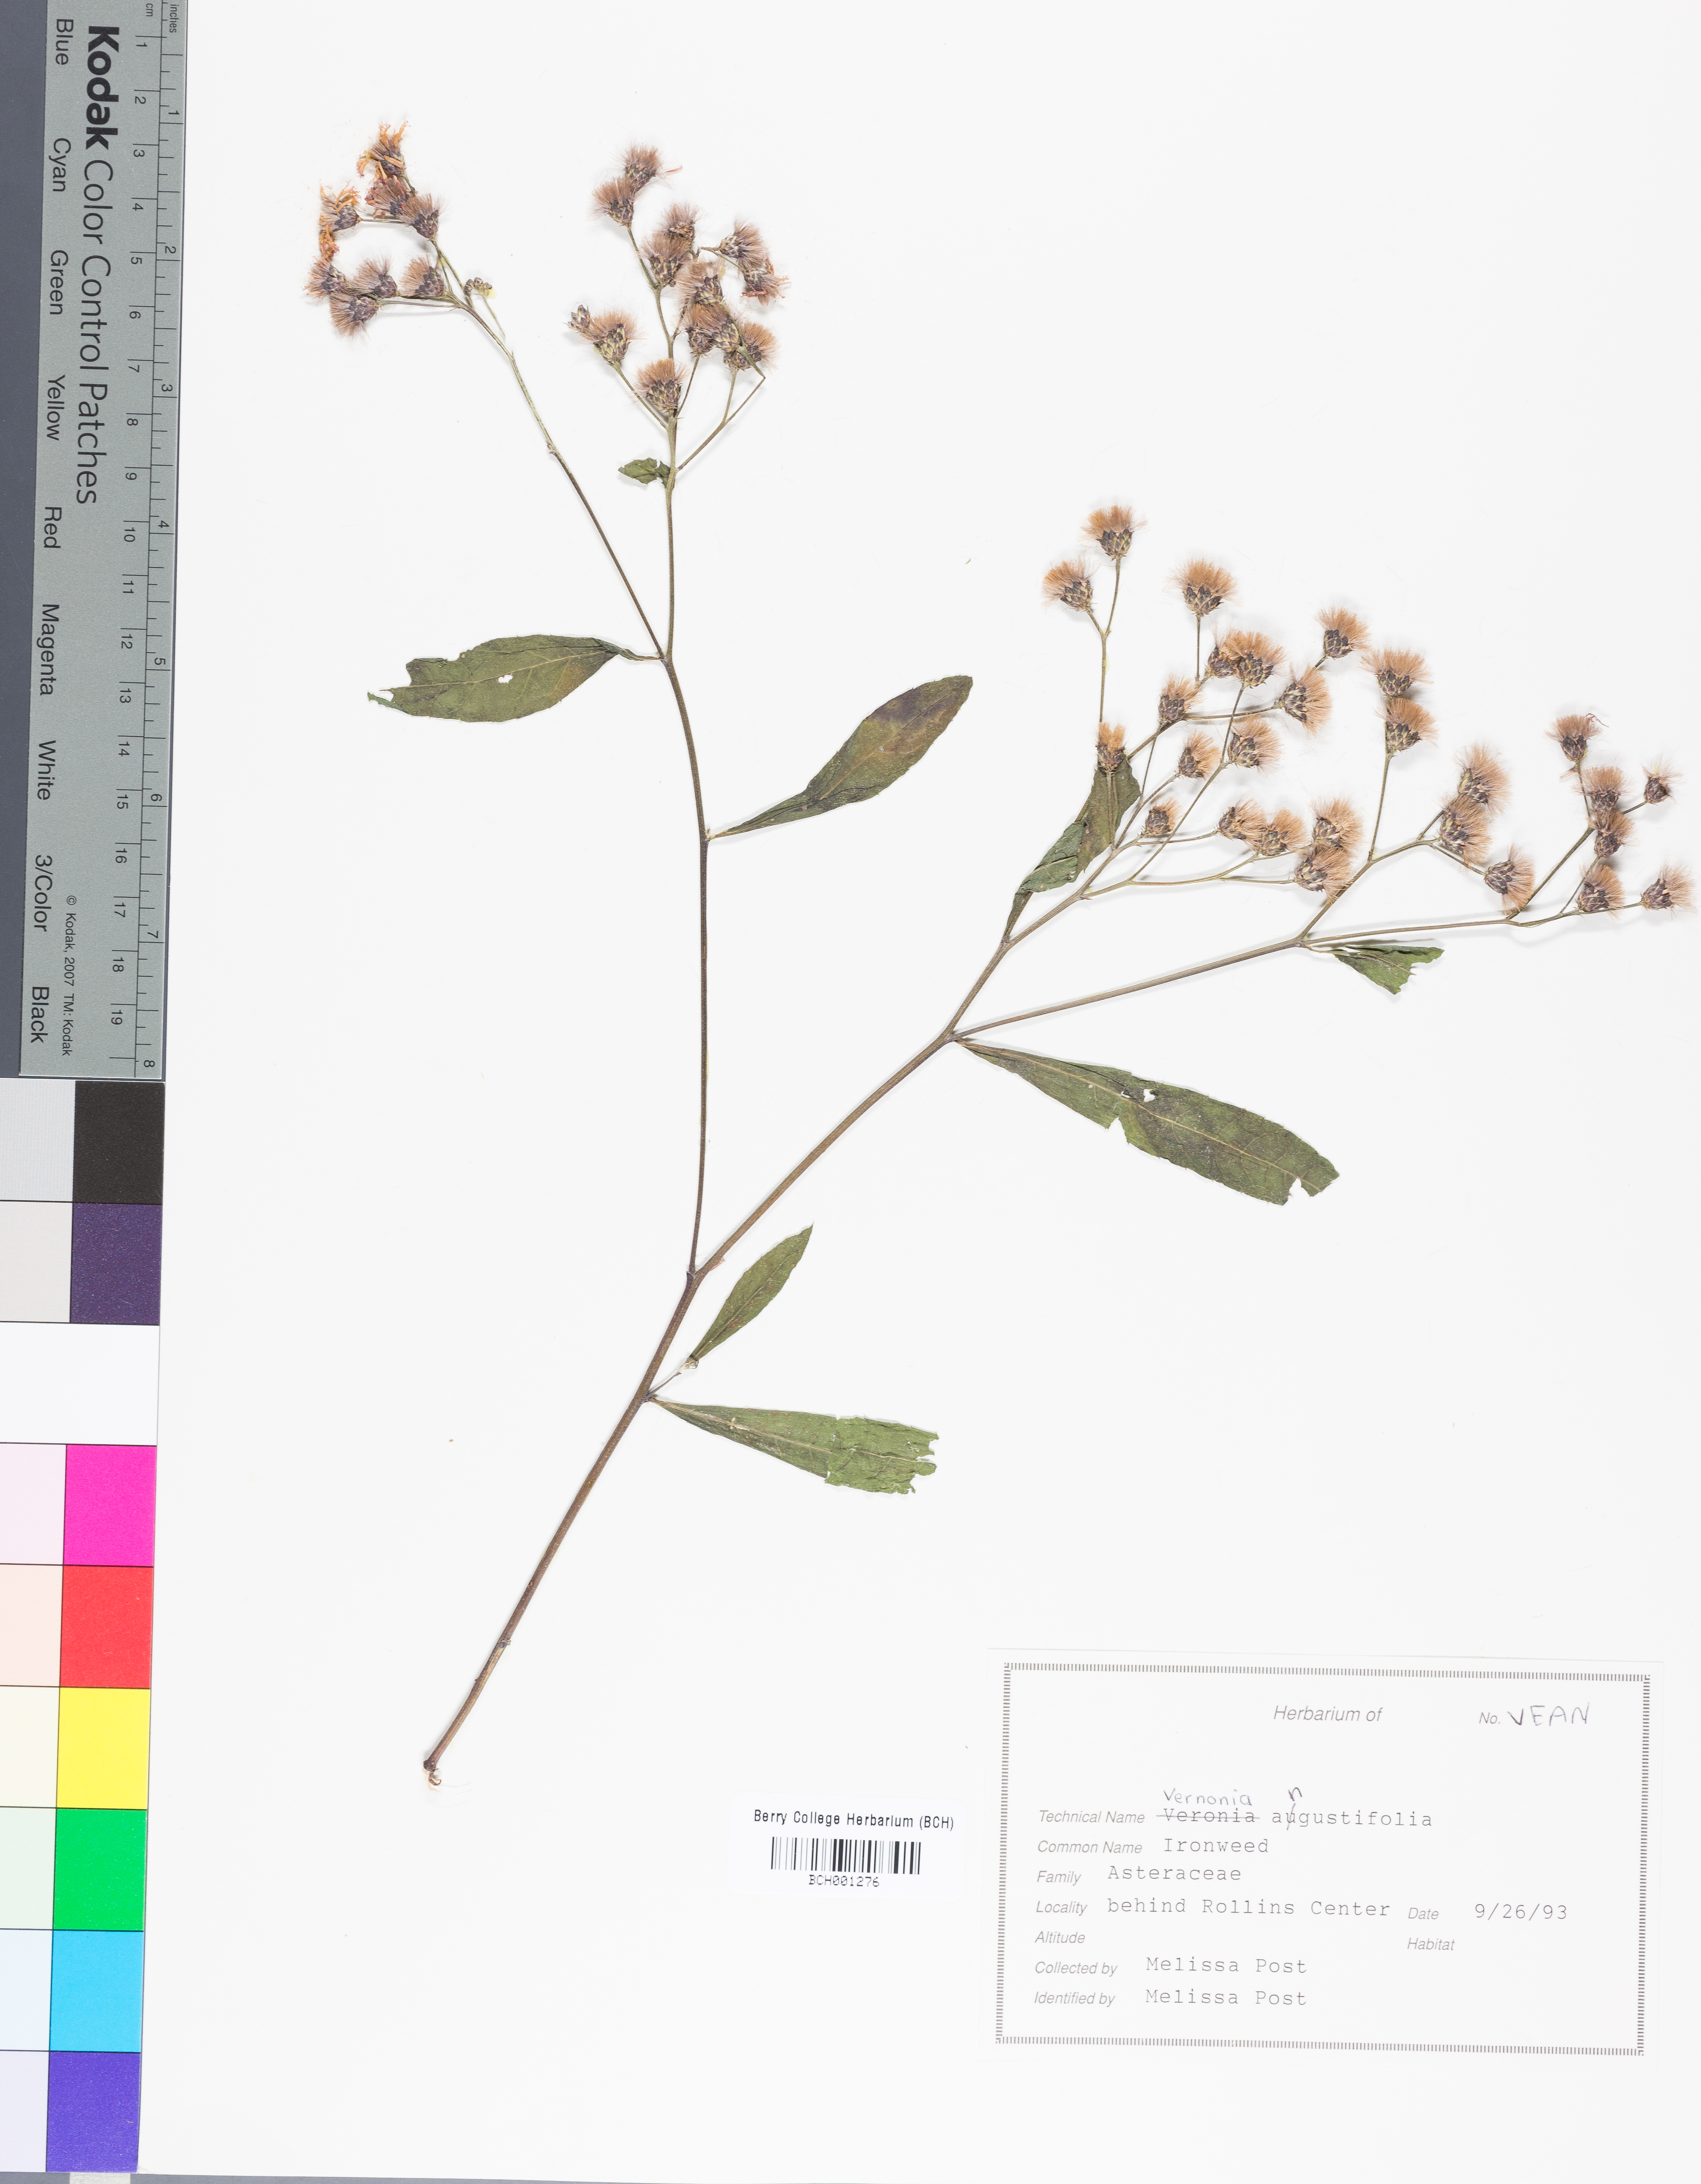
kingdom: Plantae
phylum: Tracheophyta
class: Magnoliopsida
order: Asterales
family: Asteraceae
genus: Vernonia
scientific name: Vernonia angustifolia
